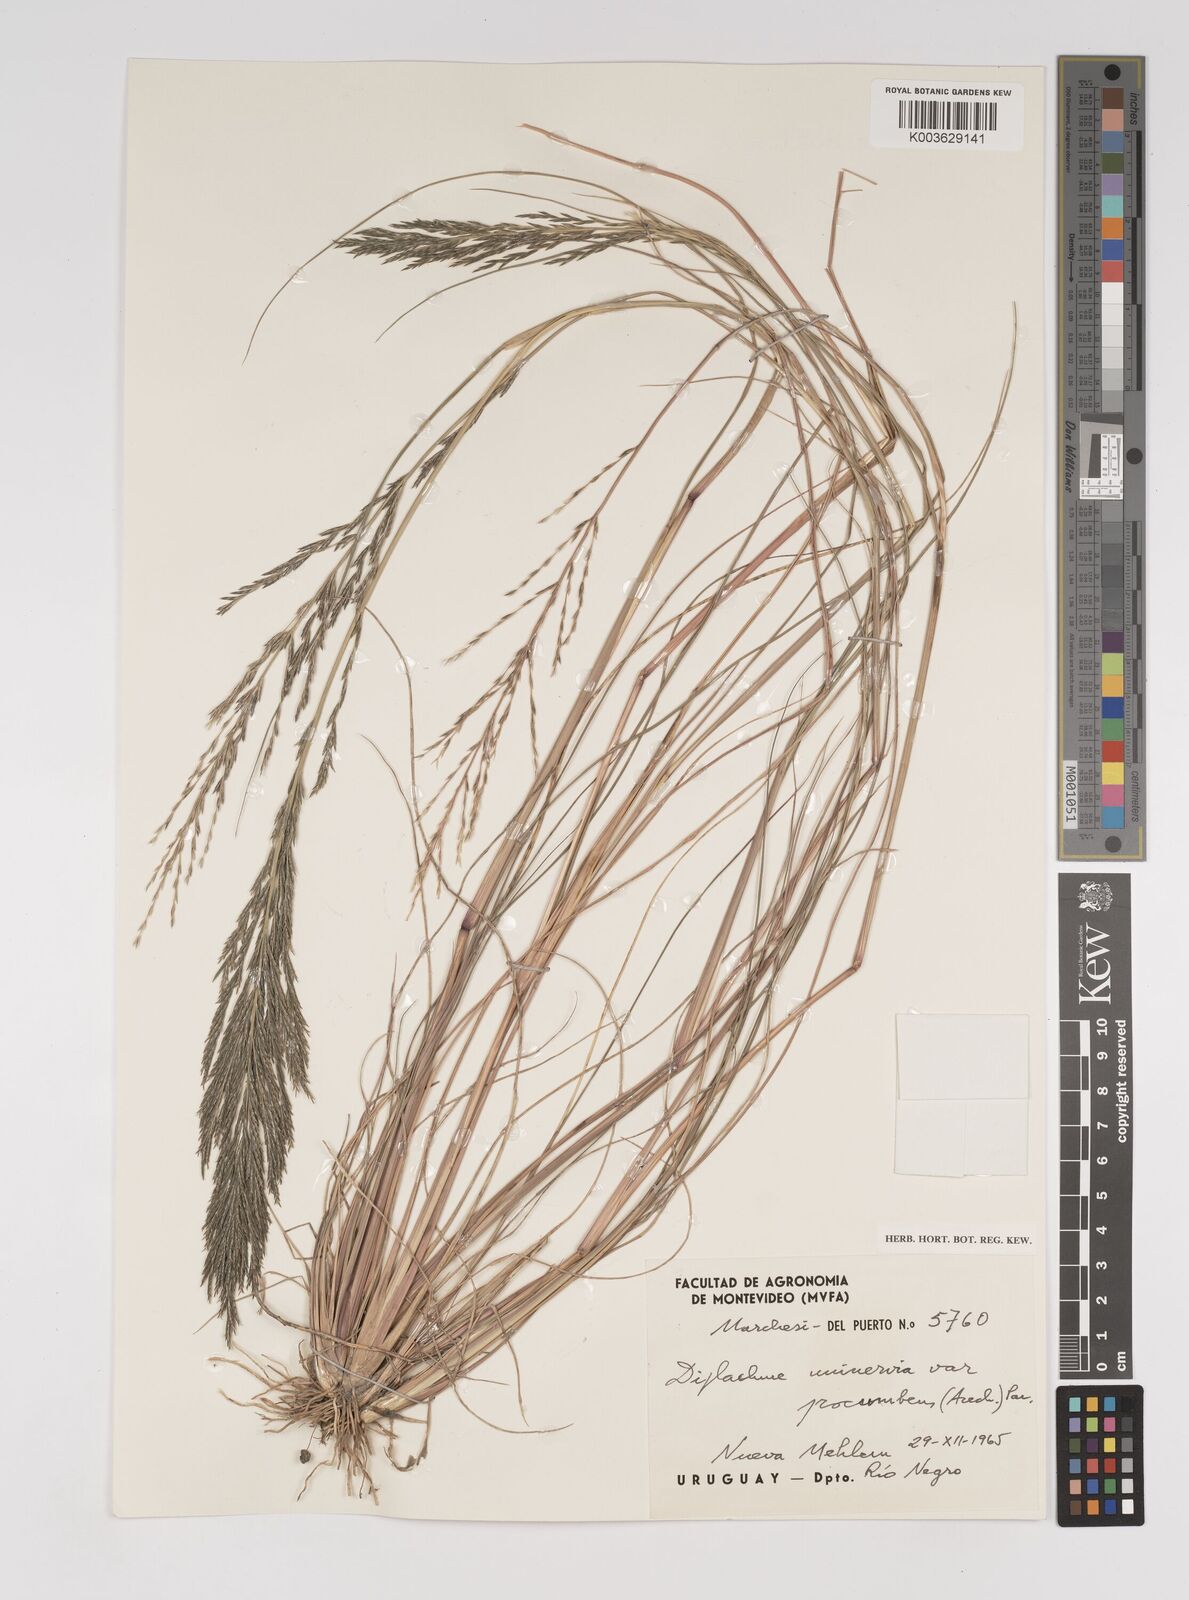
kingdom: Plantae
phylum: Tracheophyta
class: Liliopsida
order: Poales
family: Poaceae
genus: Diplachne
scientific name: Diplachne fusca
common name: Brown beetle grass
